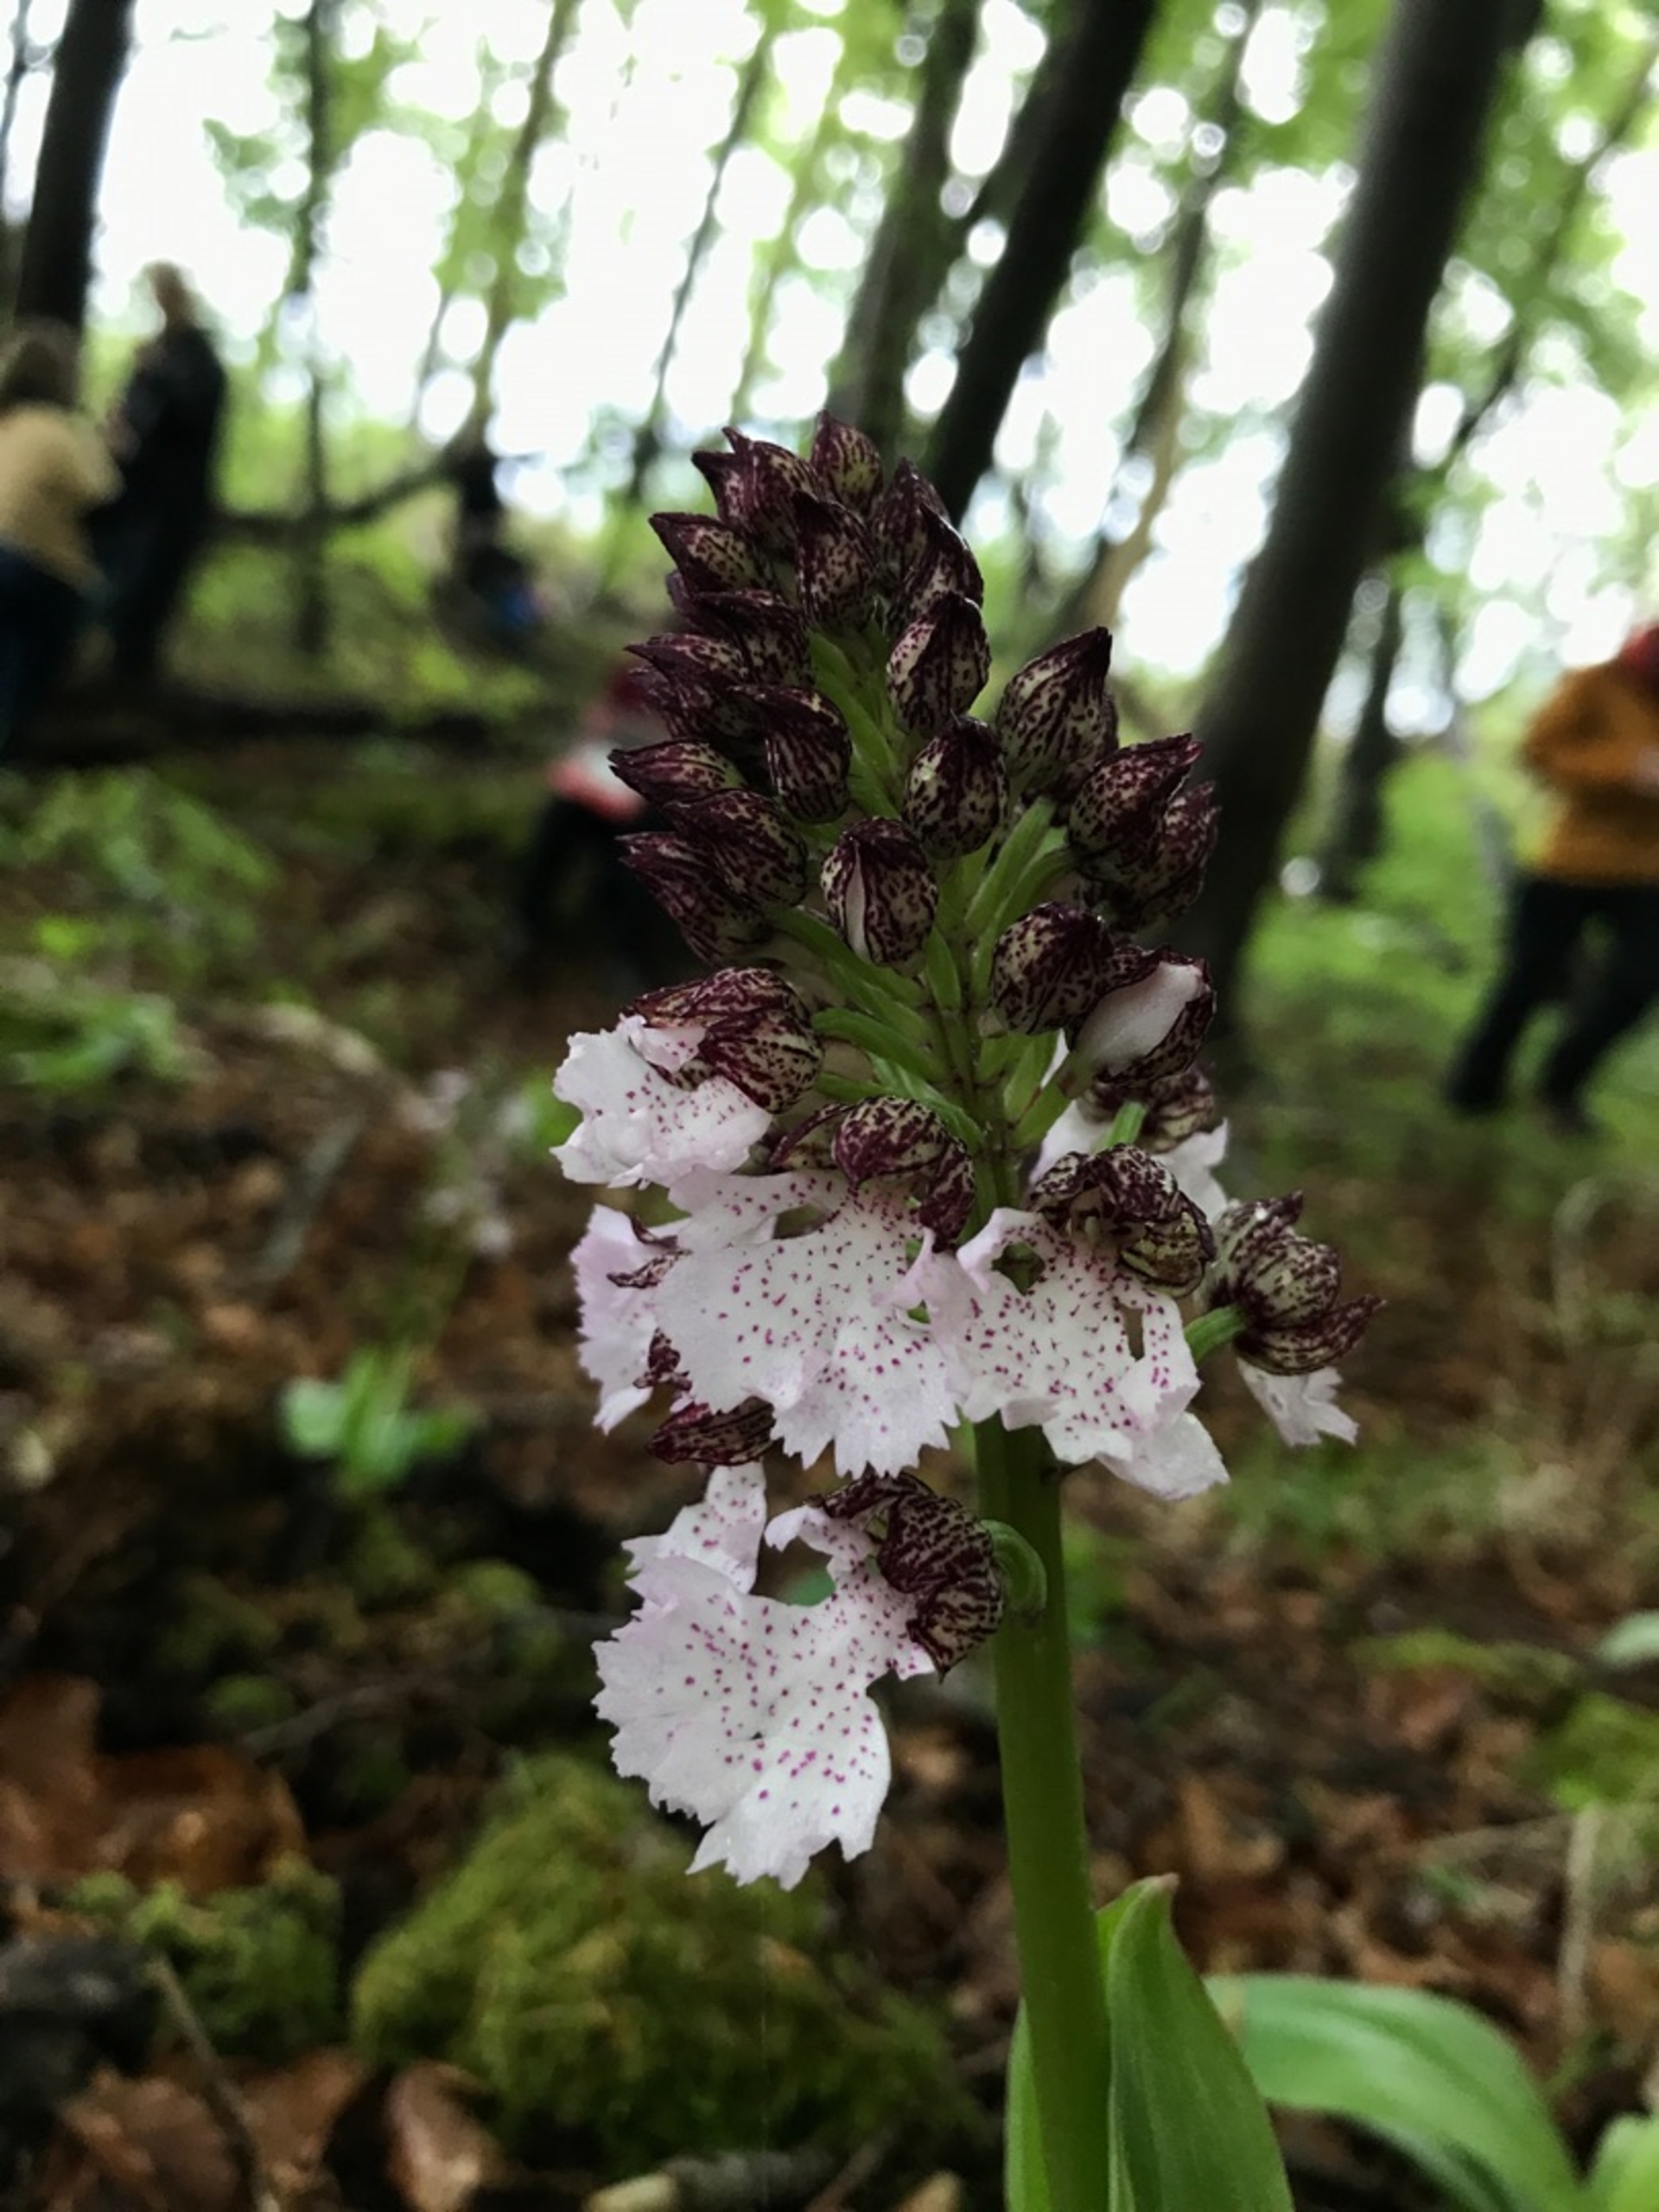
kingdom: Plantae
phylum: Tracheophyta
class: Liliopsida
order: Asparagales
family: Orchidaceae
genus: Orchis
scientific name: Orchis purpurea
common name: Stor gøgeurt
